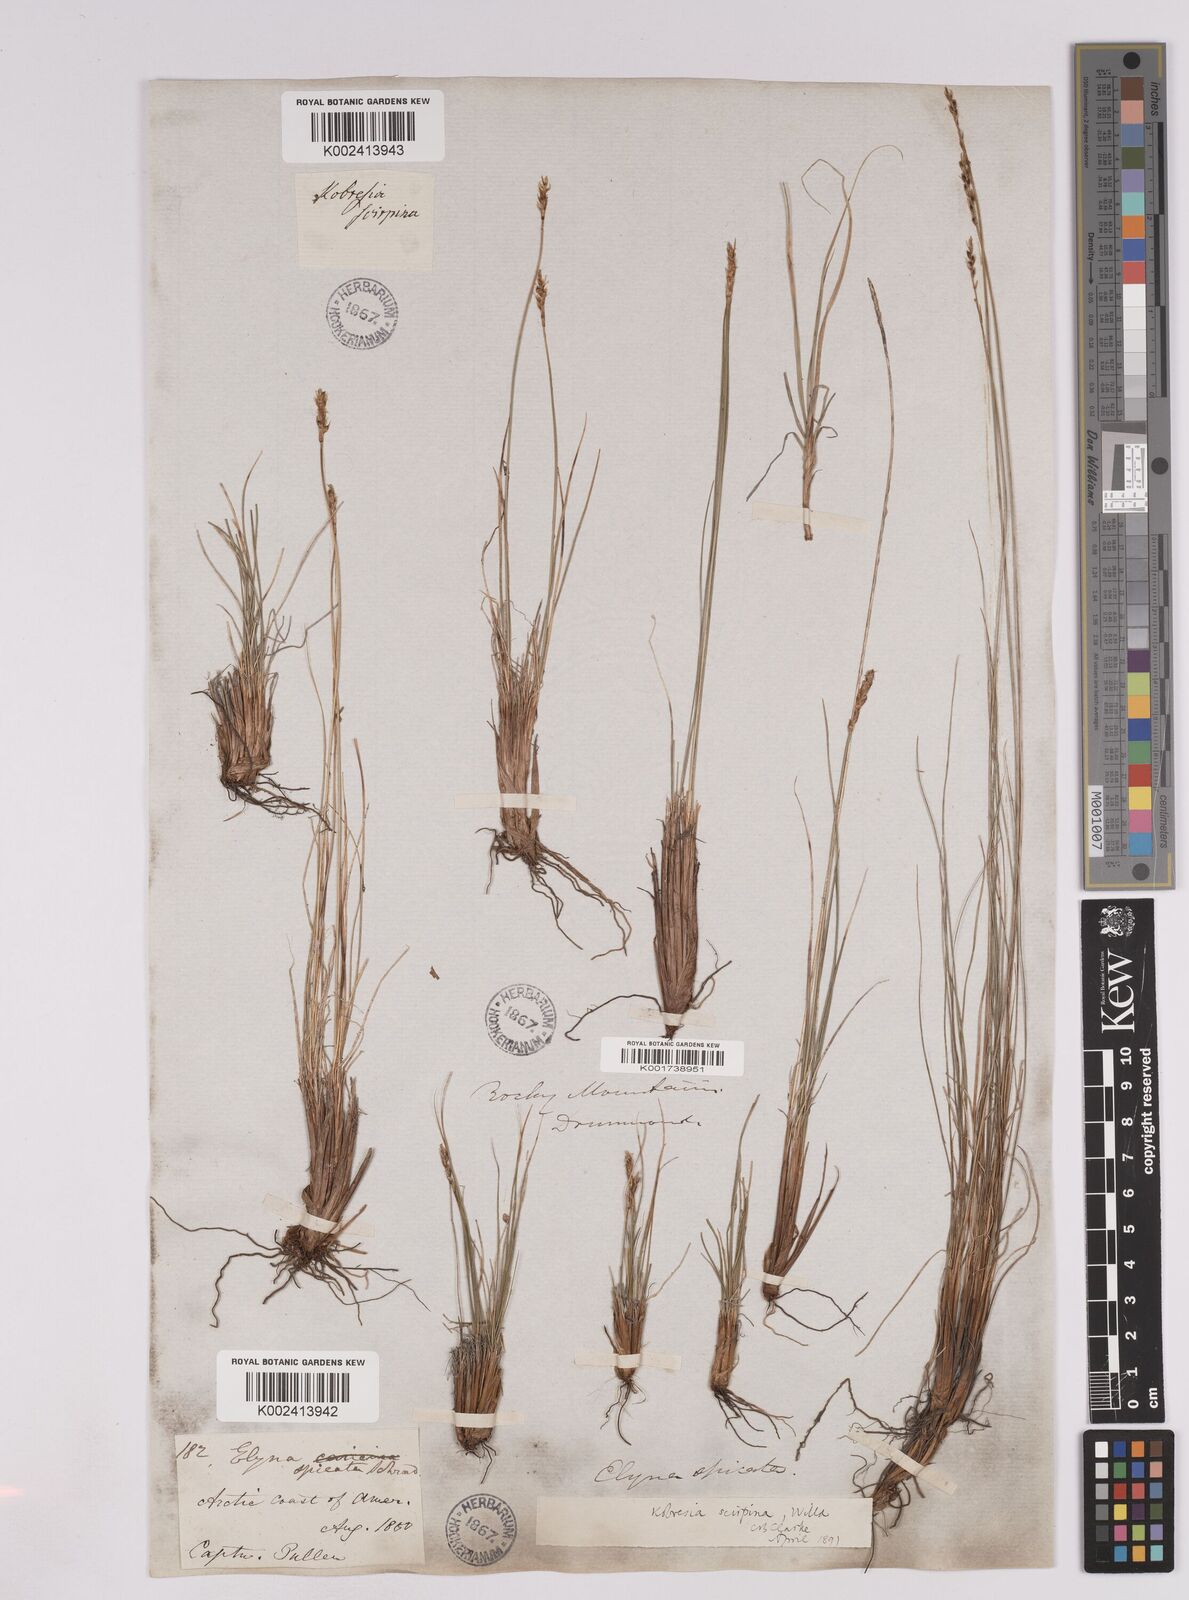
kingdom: Plantae
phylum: Tracheophyta
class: Liliopsida
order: Poales
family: Cyperaceae
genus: Carex
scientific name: Carex myosuroides
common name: Bellard's bog sedge
